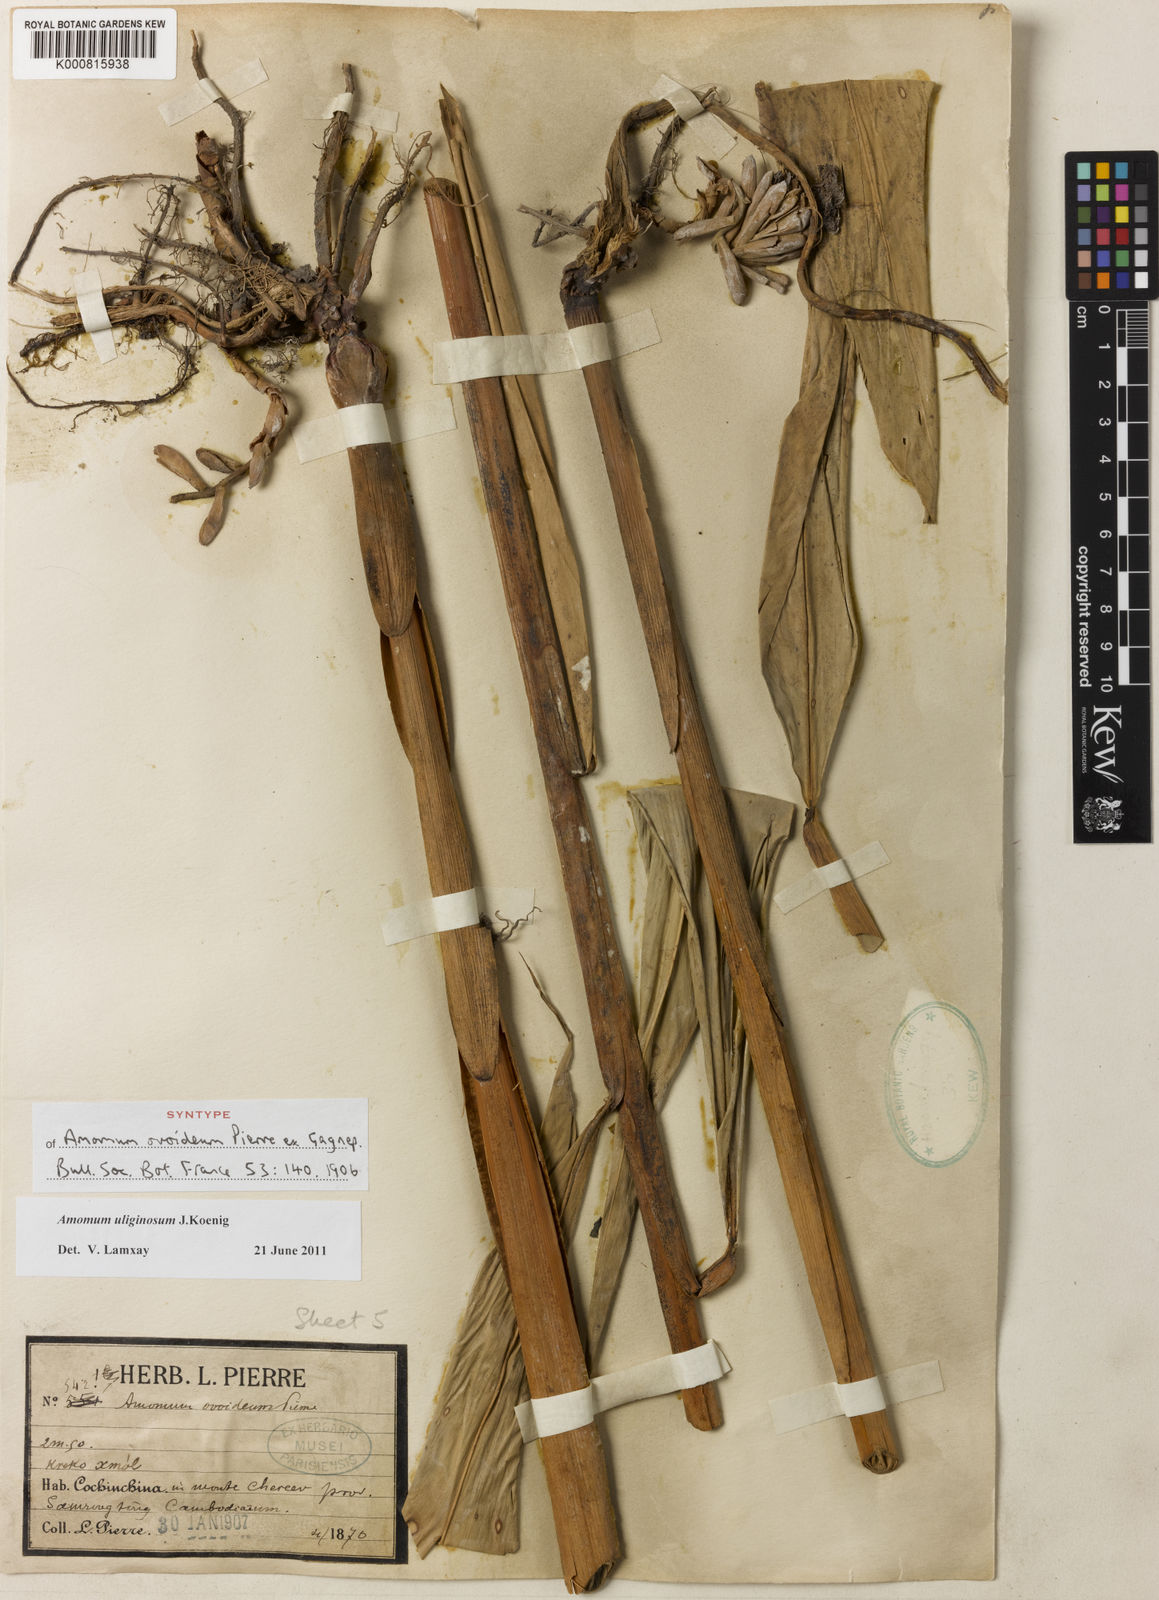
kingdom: Plantae
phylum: Tracheophyta
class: Liliopsida
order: Zingiberales
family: Zingiberaceae
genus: Wurfbainia
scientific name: Wurfbainia uliginosa
